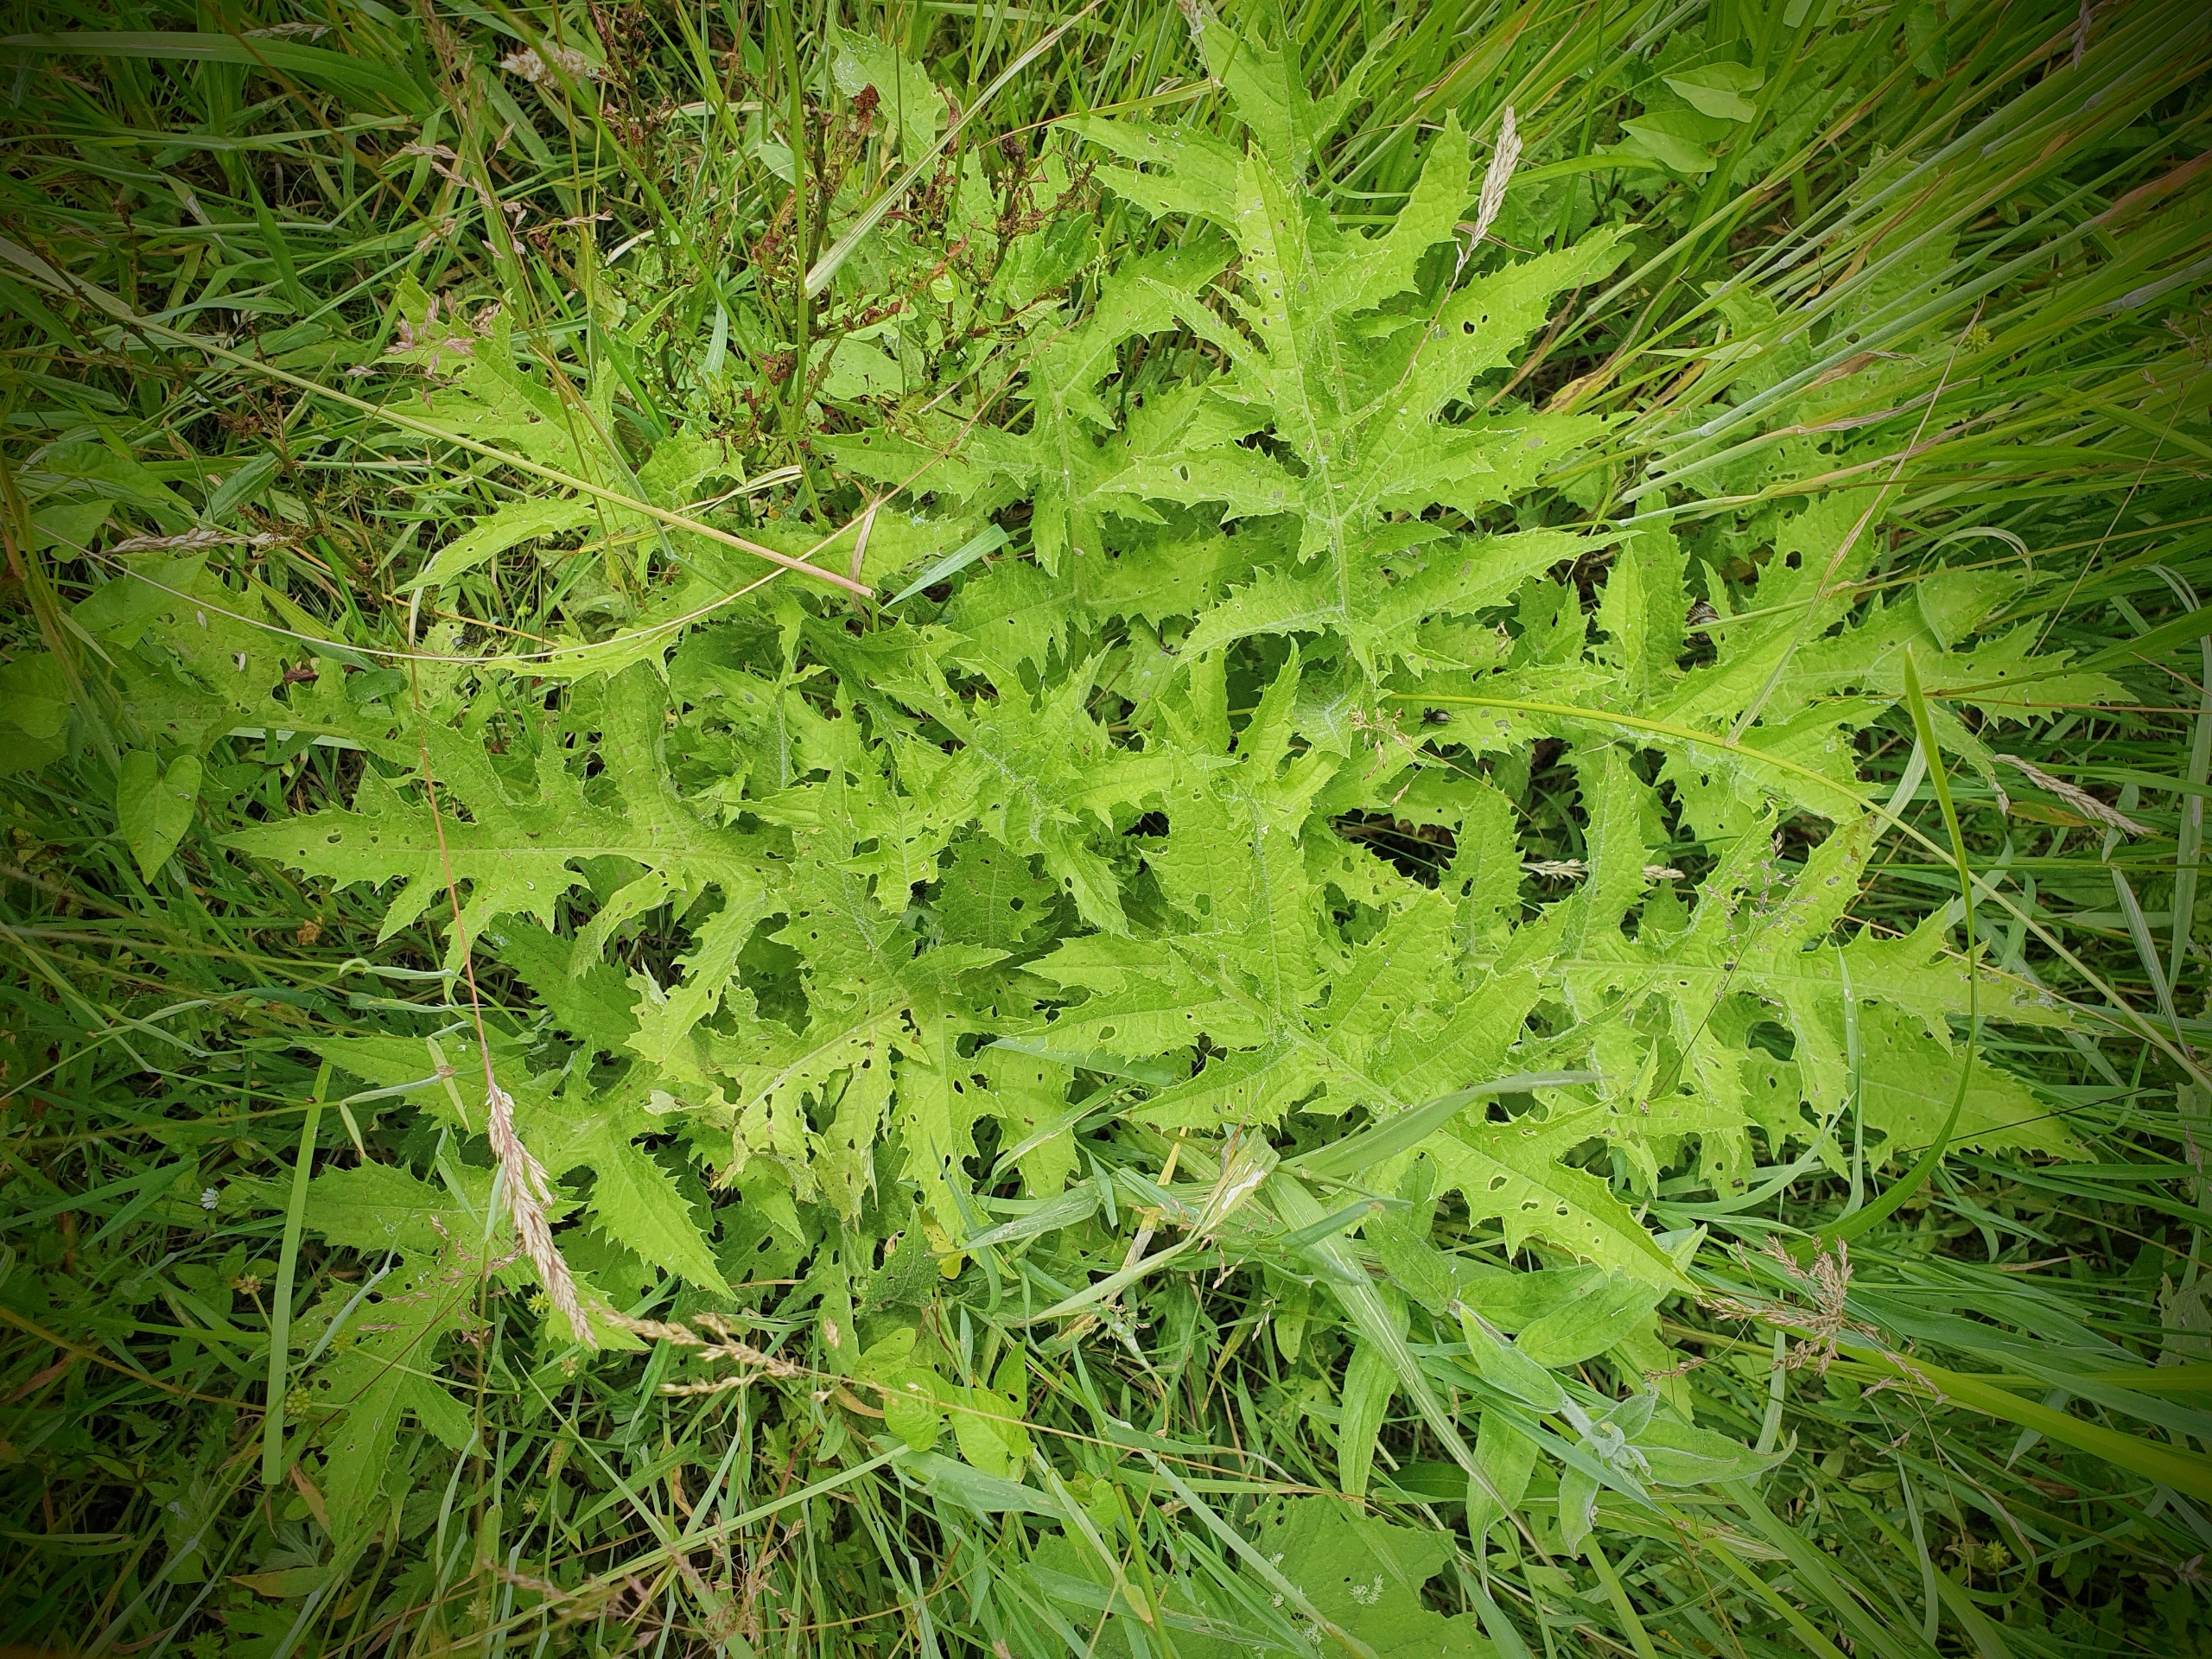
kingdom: Plantae
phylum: Tracheophyta
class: Magnoliopsida
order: Asterales
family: Asteraceae
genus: Cirsium
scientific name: Cirsium oleraceum
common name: Kål-tidsel
